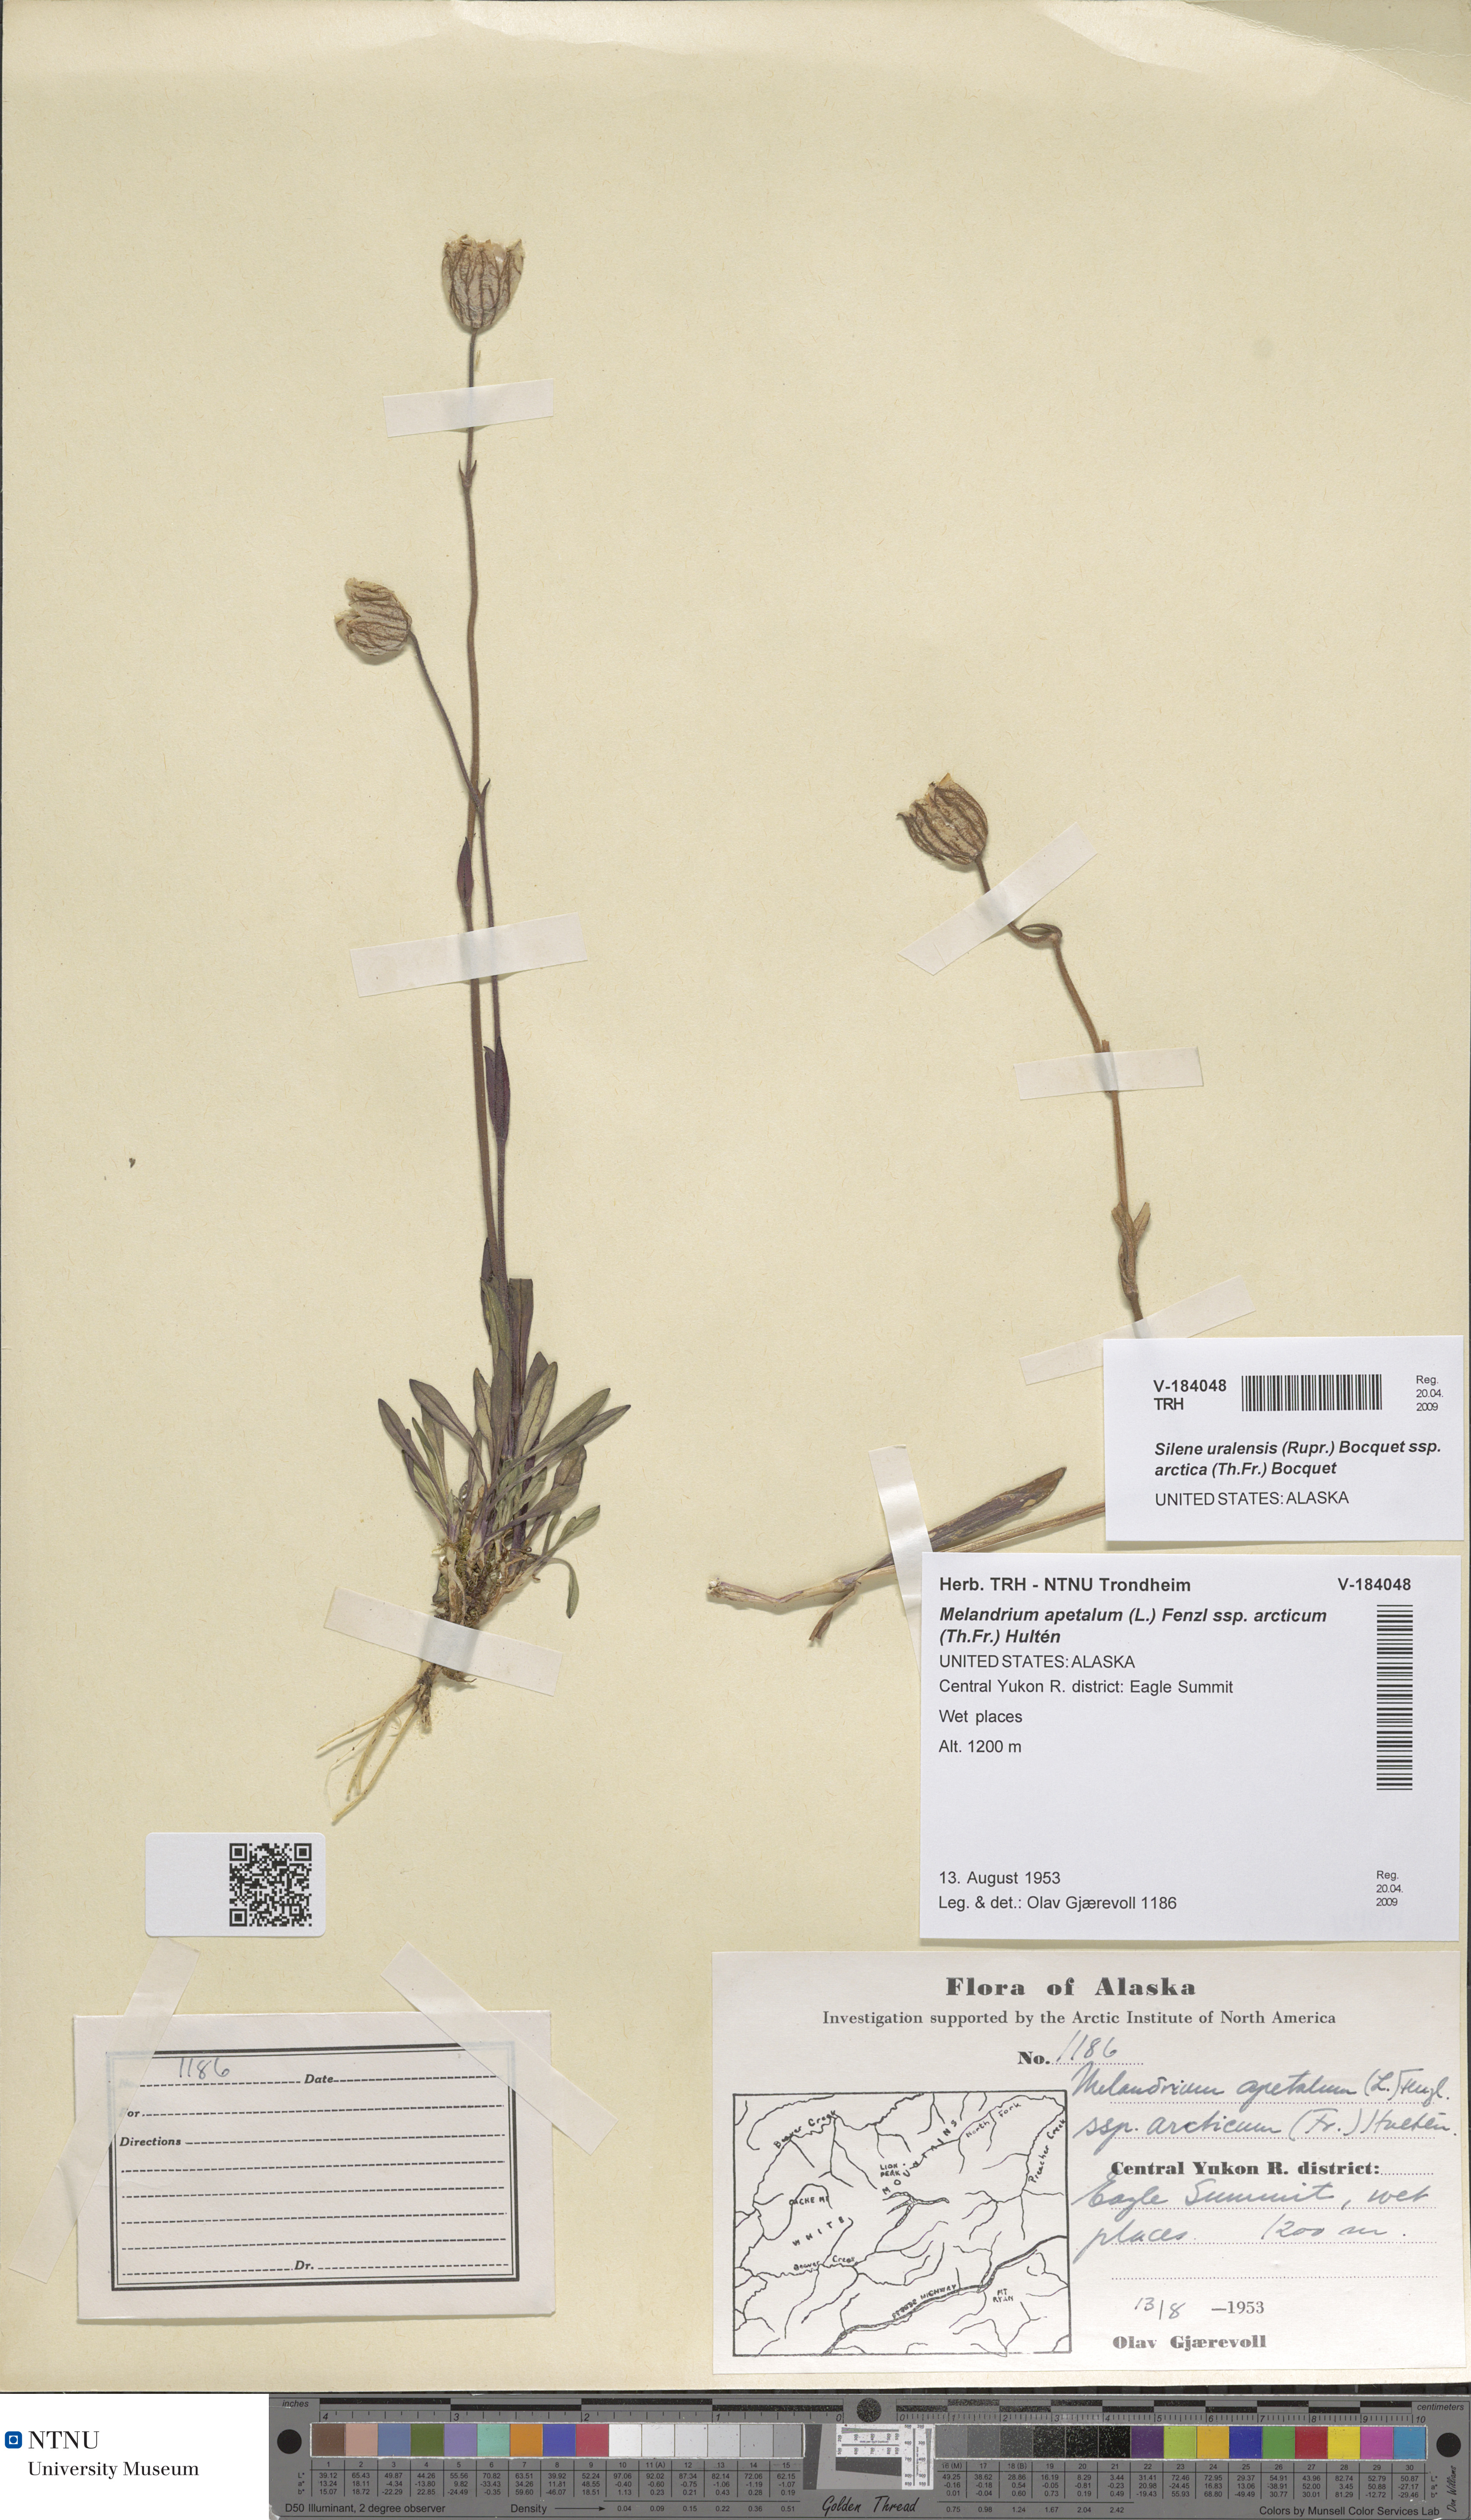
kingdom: Plantae
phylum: Tracheophyta
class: Magnoliopsida
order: Caryophyllales
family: Caryophyllaceae
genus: Silene
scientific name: Silene uralensis
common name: Nodding campion
